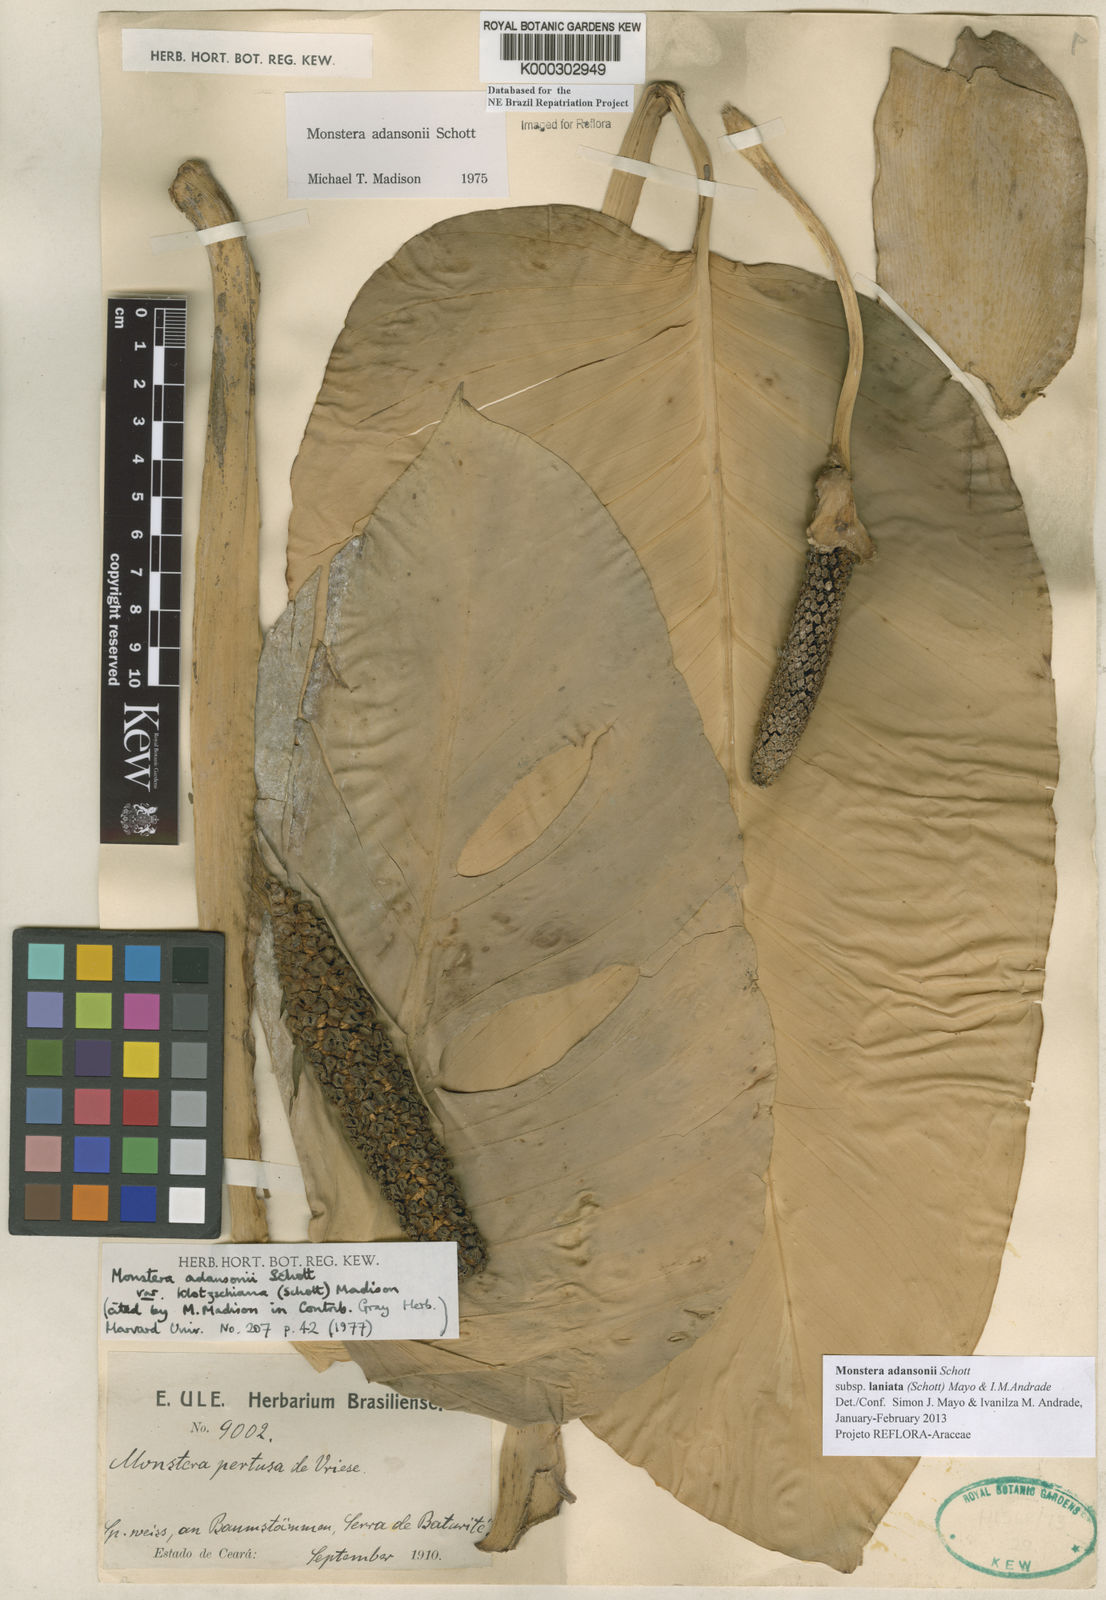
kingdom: Plantae
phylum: Tracheophyta
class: Liliopsida
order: Alismatales
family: Araceae
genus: Monstera
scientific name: Monstera adansonii
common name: Tarovine
